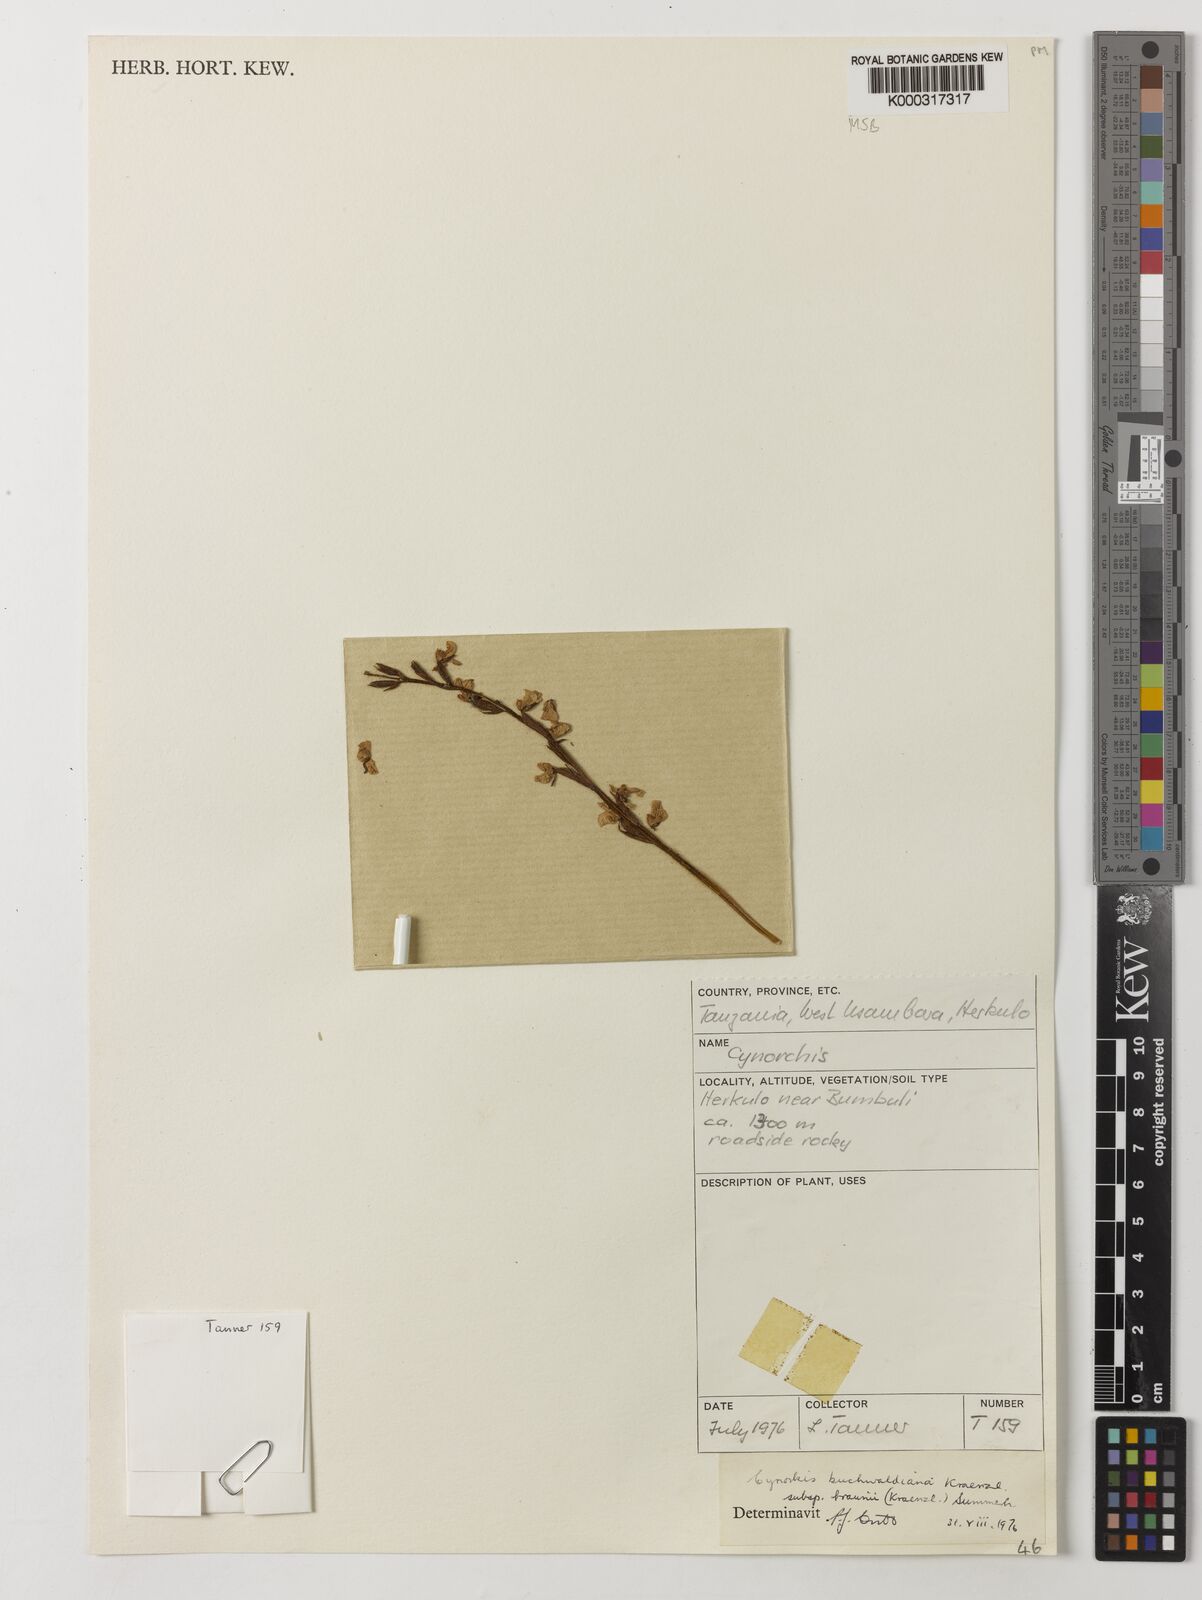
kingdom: Plantae
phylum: Tracheophyta
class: Liliopsida
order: Asparagales
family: Orchidaceae
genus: Cynorkis
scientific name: Cynorkis buchwaldiana
